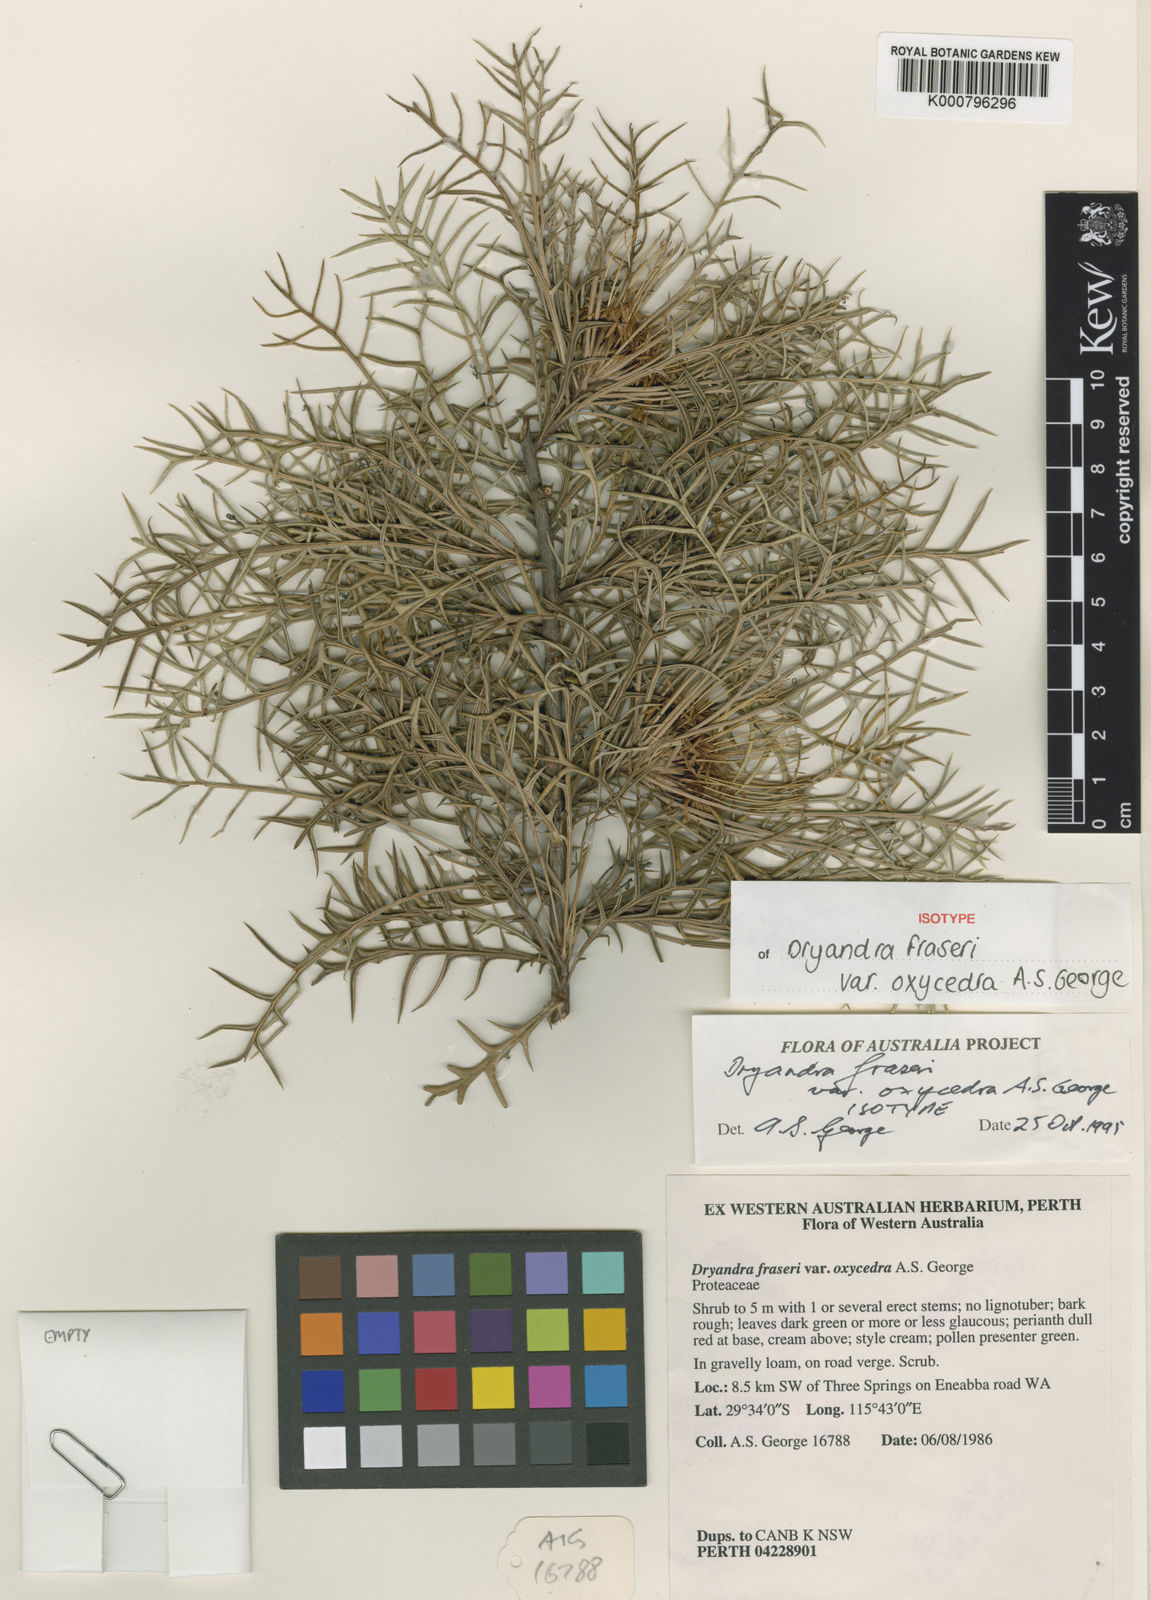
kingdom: Plantae
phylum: Tracheophyta
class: Magnoliopsida
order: Proteales
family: Proteaceae
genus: Banksia
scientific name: Banksia fraseri
